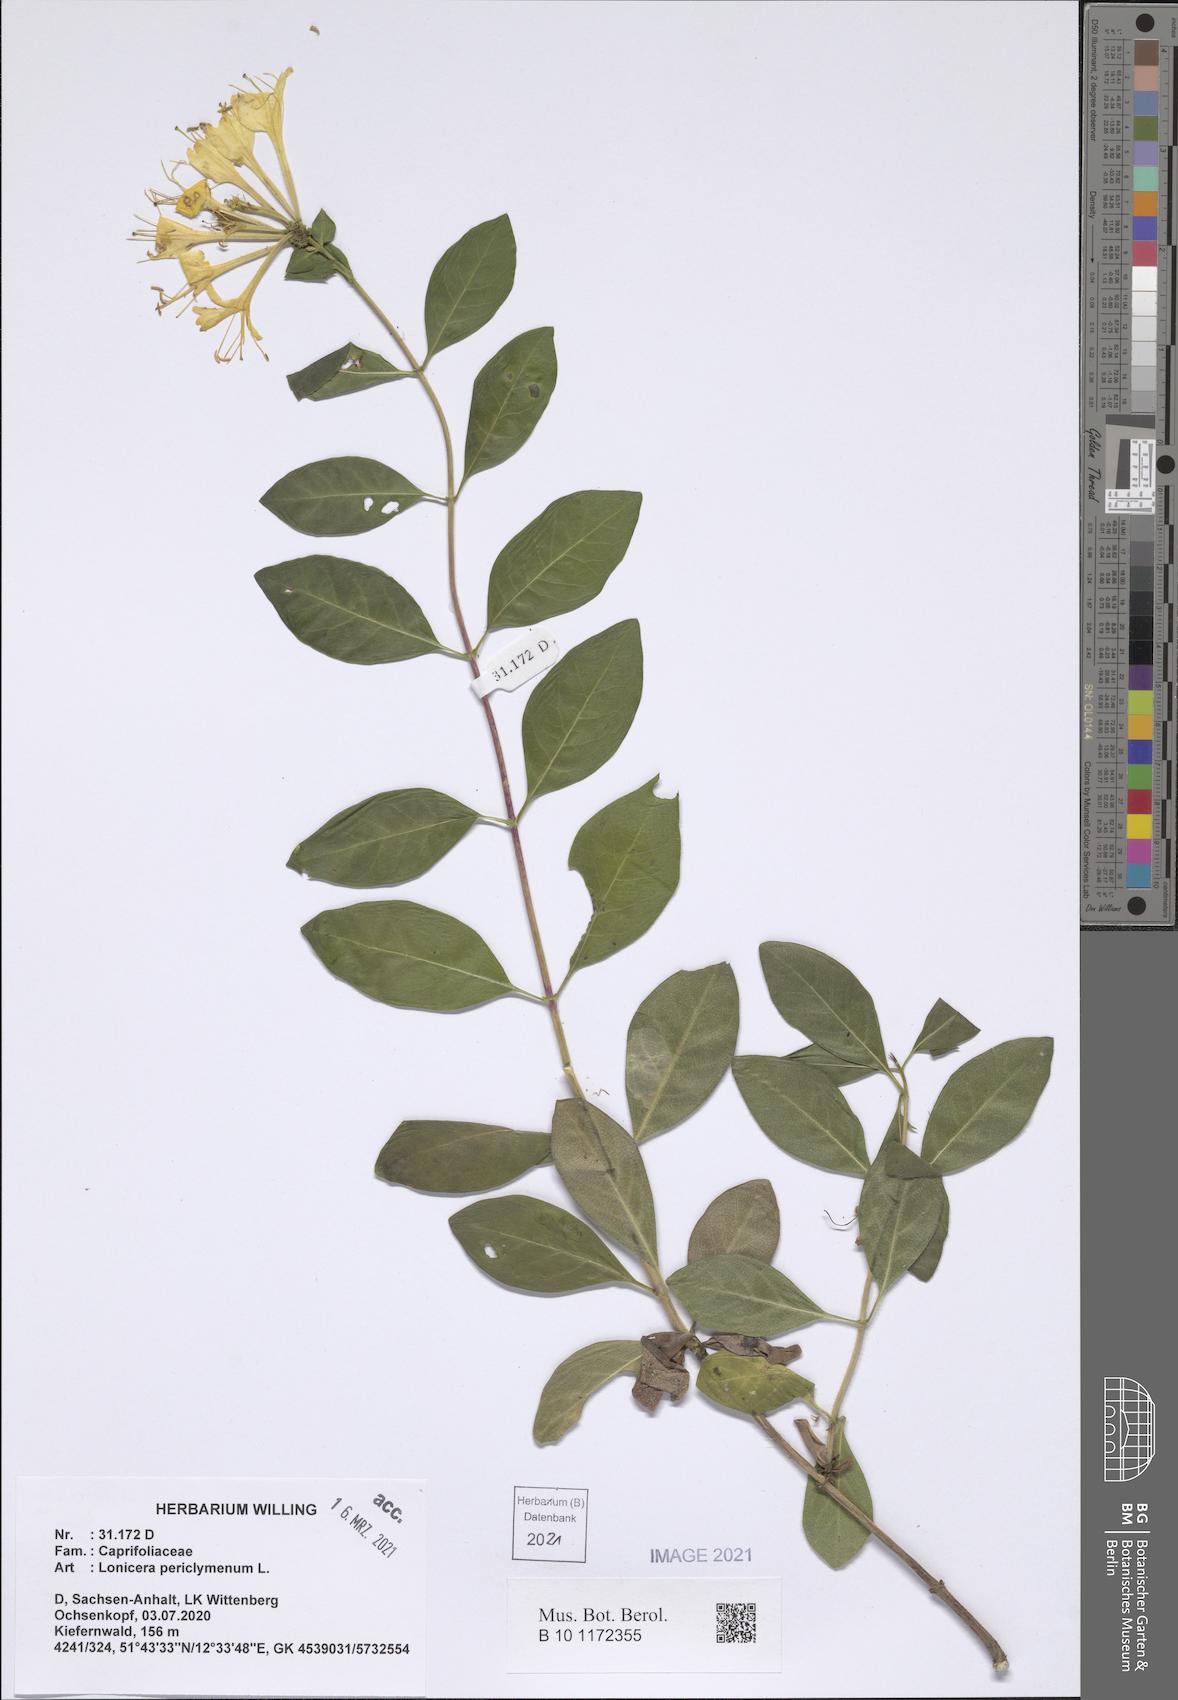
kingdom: Plantae
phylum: Tracheophyta
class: Magnoliopsida
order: Dipsacales
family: Caprifoliaceae
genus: Lonicera
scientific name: Lonicera periclymenum
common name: European honeysuckle
